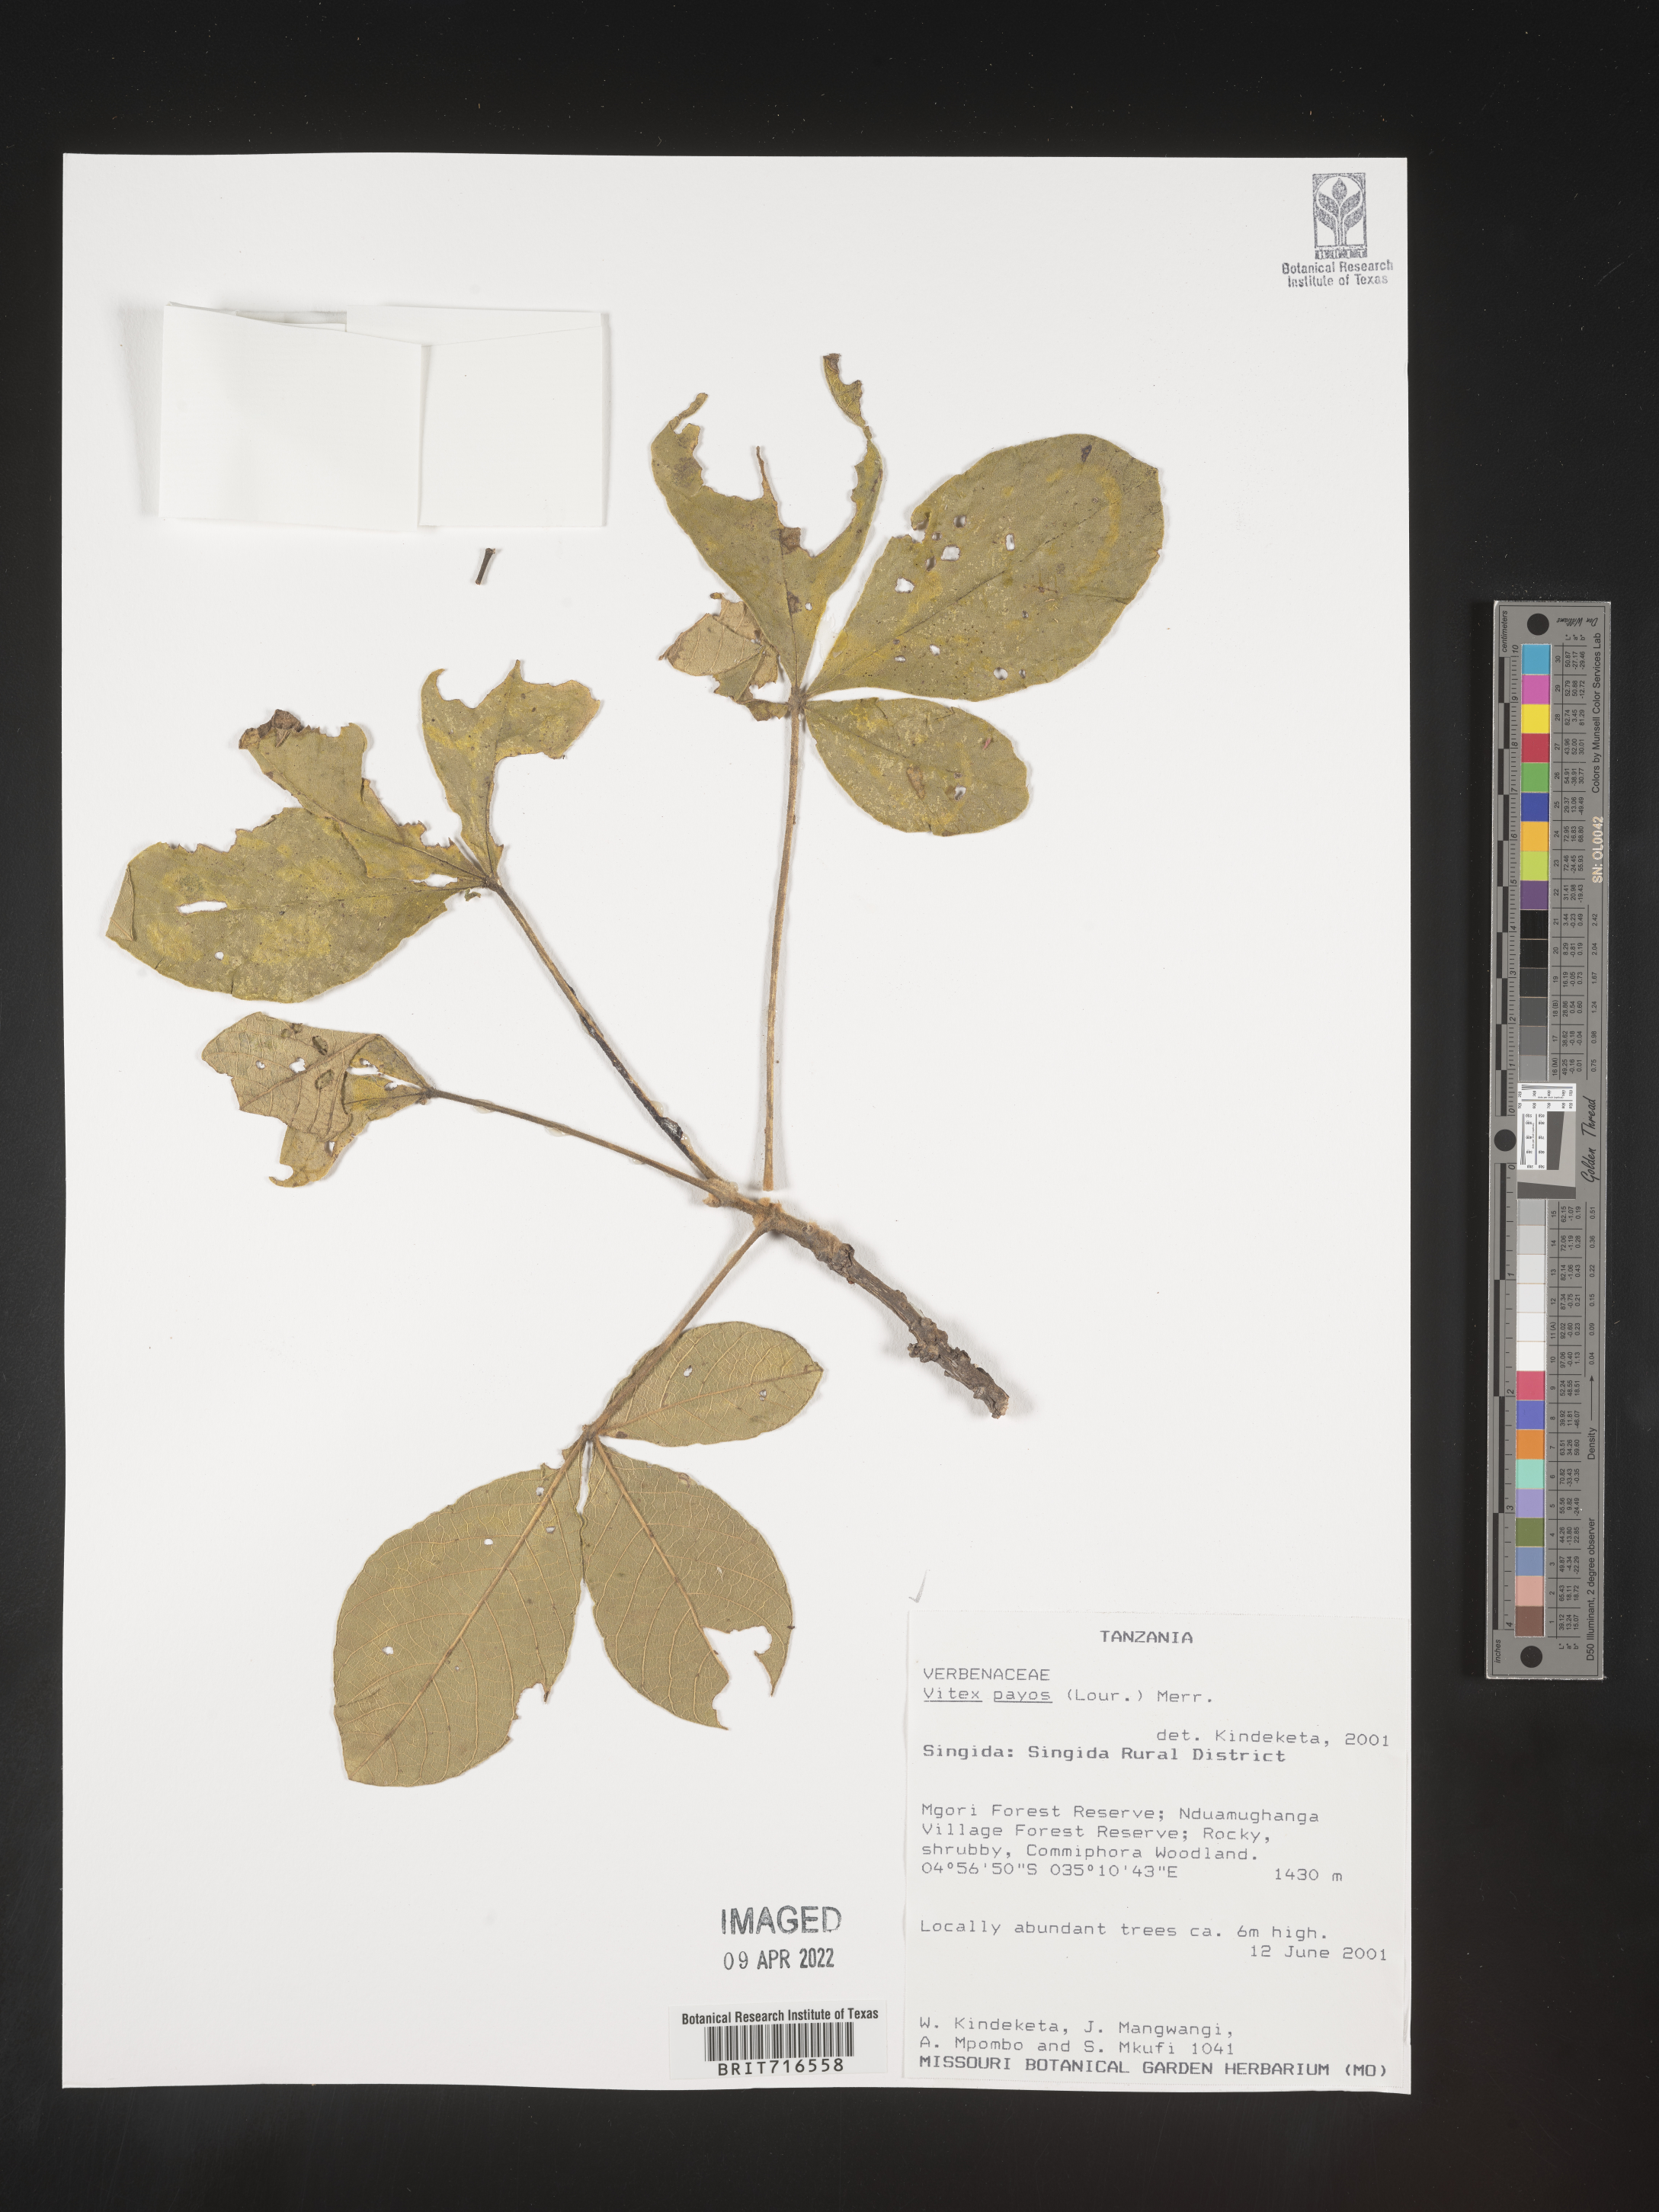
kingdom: Plantae
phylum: Tracheophyta
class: Magnoliopsida
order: Lamiales
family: Lamiaceae
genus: Vitex
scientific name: Vitex
